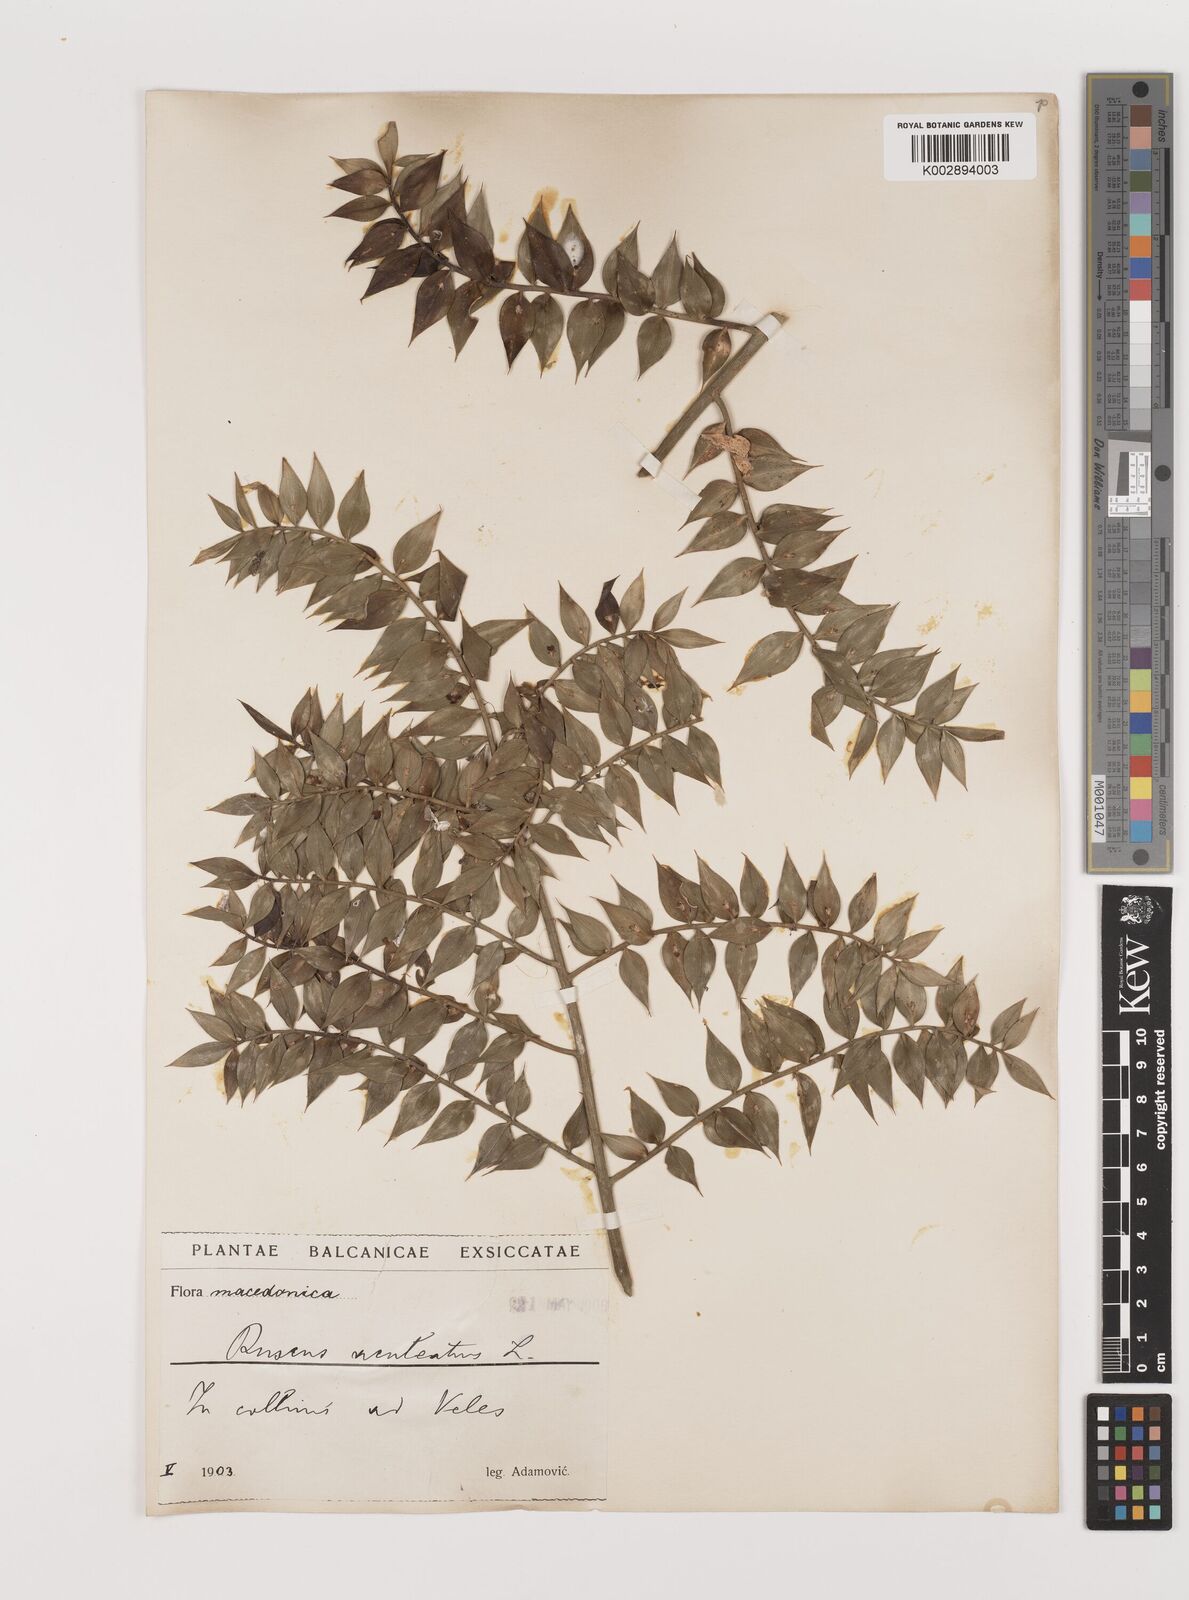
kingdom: Plantae
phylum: Tracheophyta
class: Liliopsida
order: Asparagales
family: Asparagaceae
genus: Ruscus
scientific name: Ruscus aculeatus
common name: Butcher's-broom
